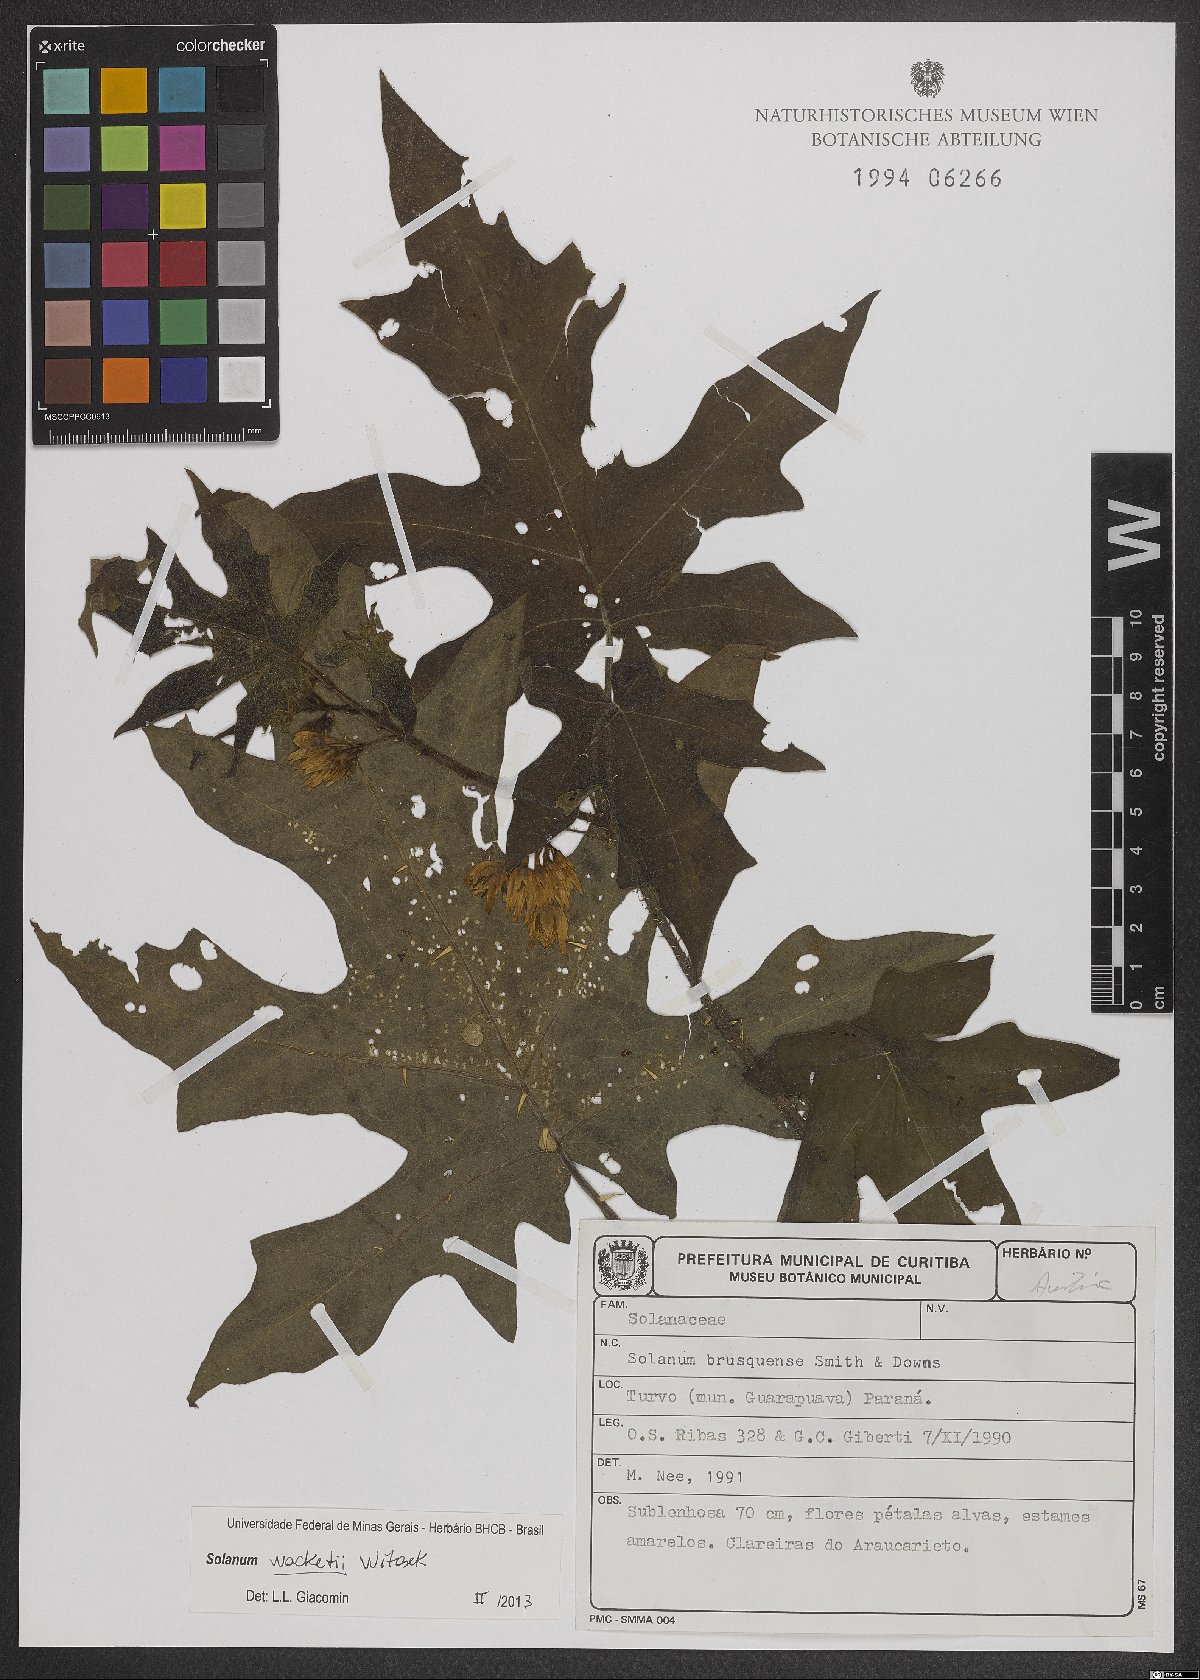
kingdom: Plantae
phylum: Tracheophyta
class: Magnoliopsida
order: Solanales
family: Solanaceae
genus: Solanum
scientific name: Solanum wacketii
